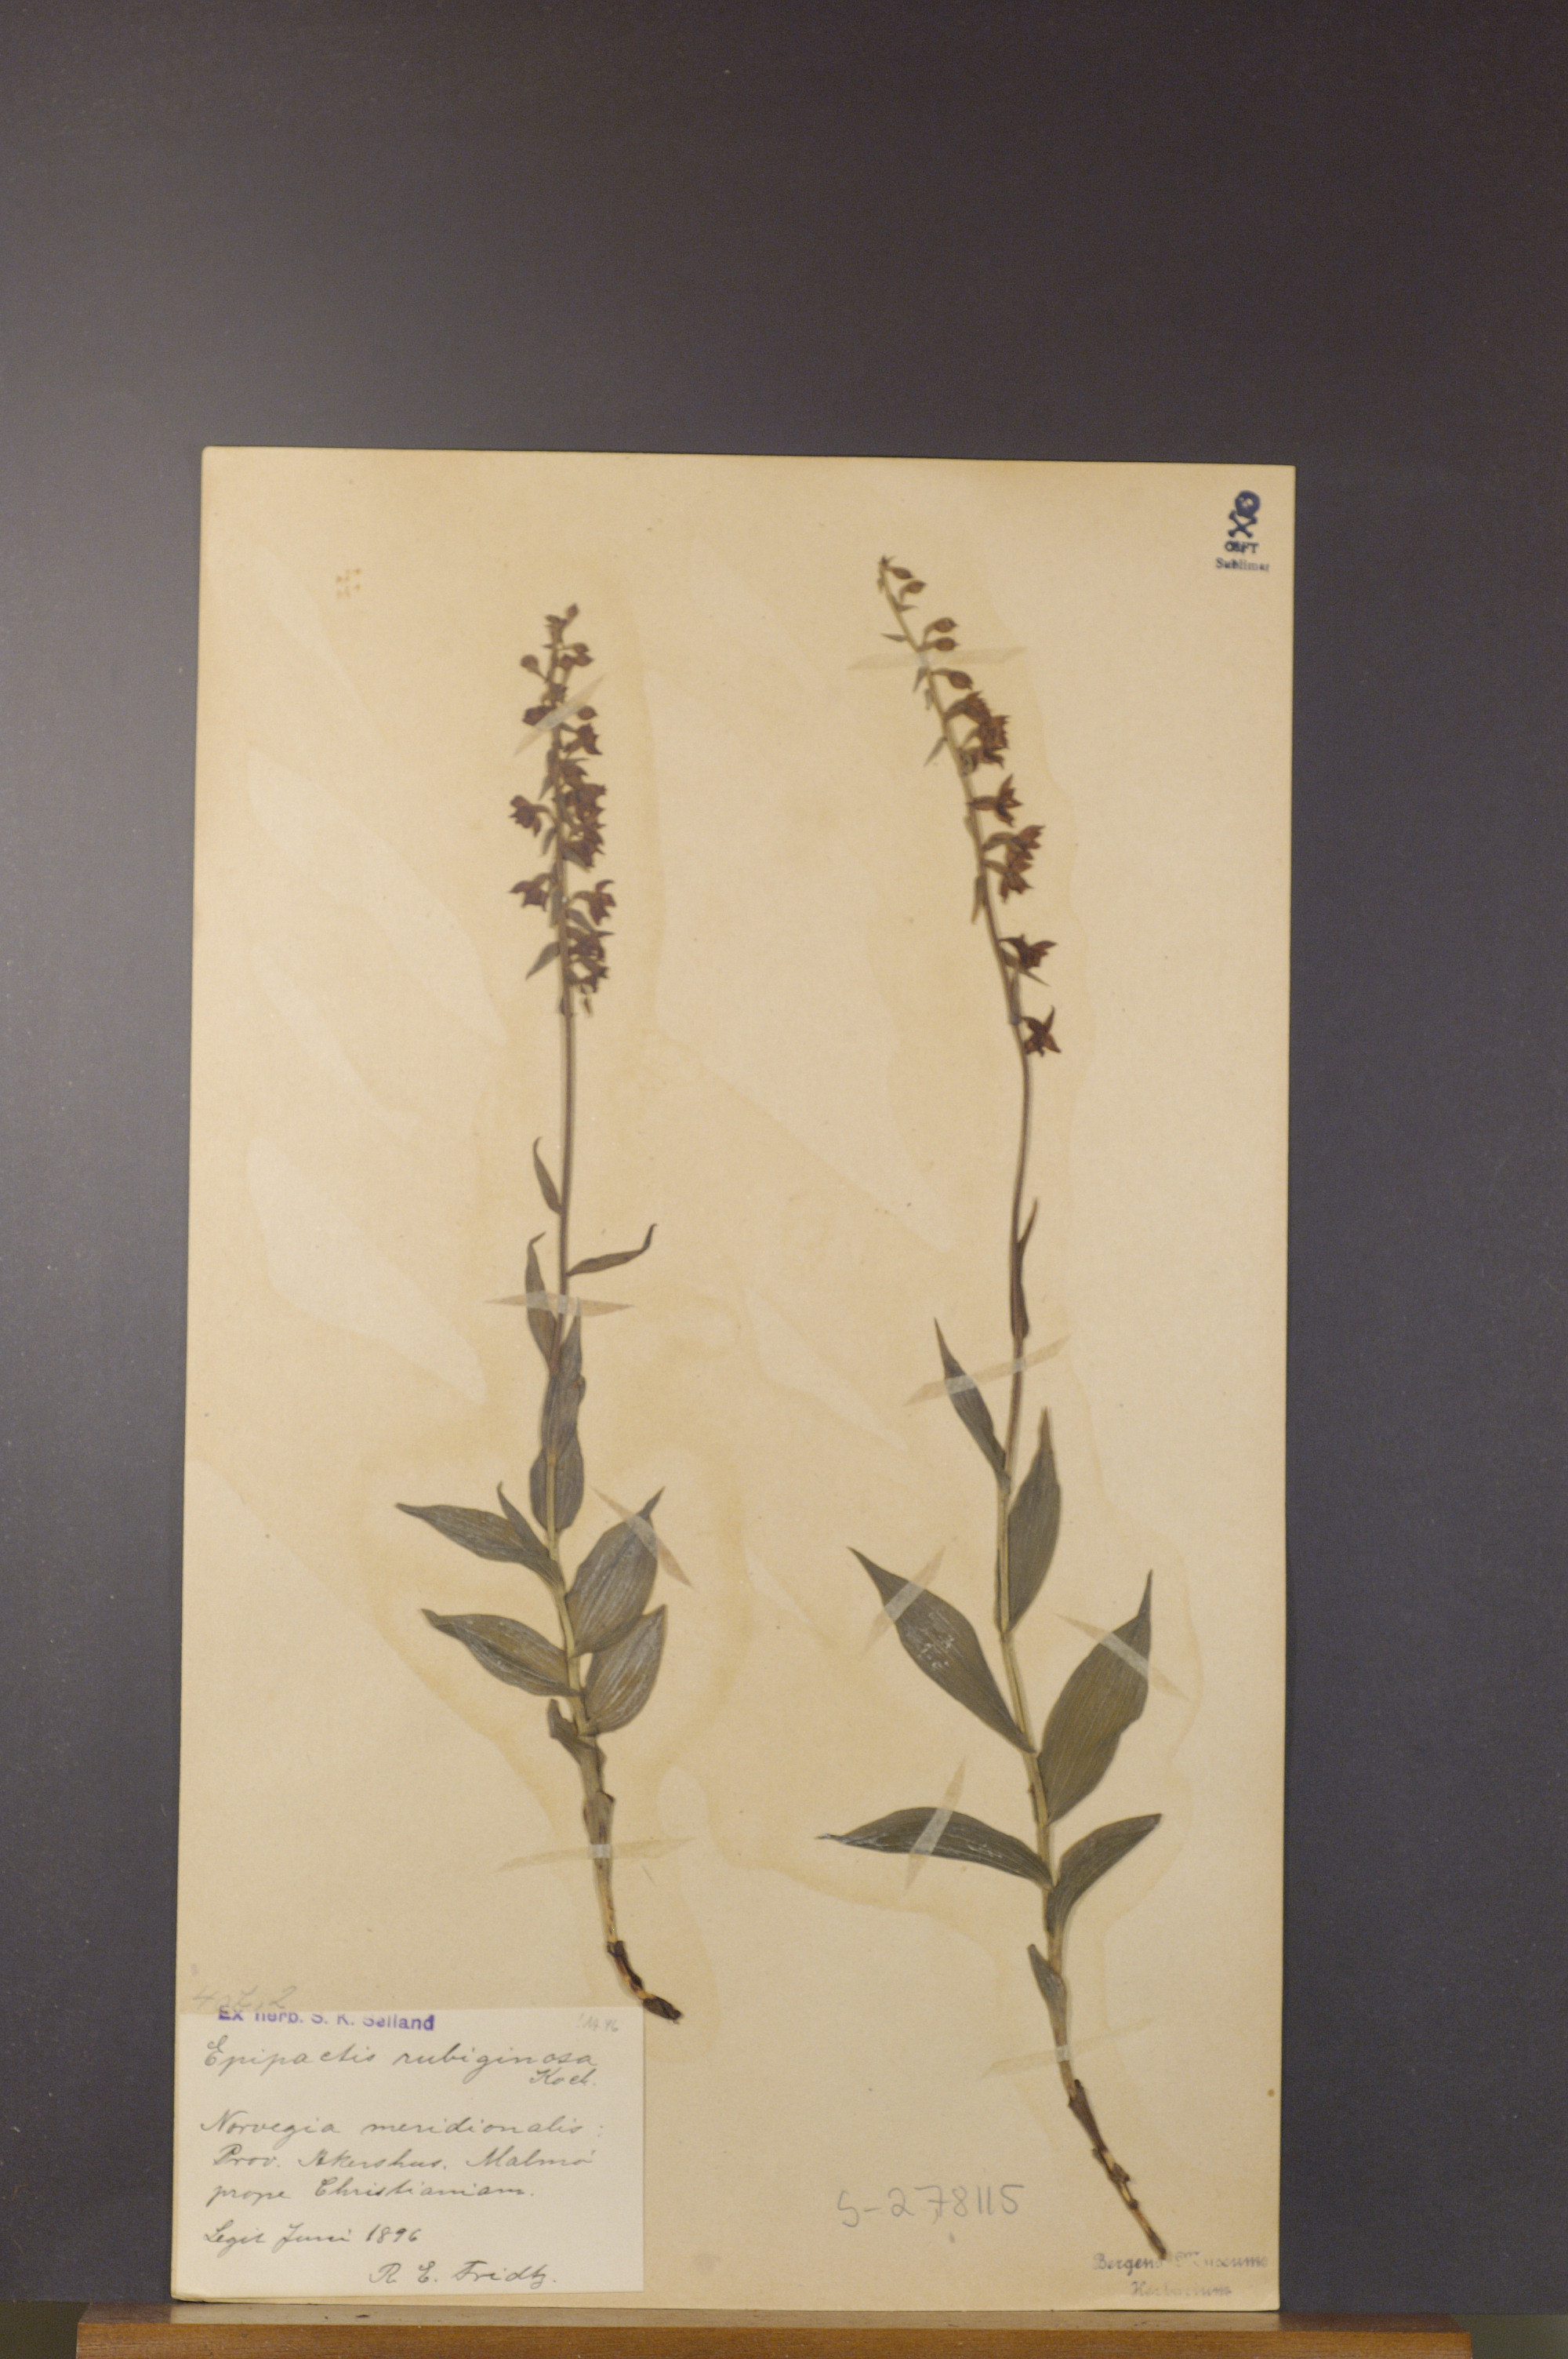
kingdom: Plantae
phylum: Tracheophyta
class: Liliopsida
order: Asparagales
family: Orchidaceae
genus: Epipactis
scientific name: Epipactis atrorubens
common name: Dark-red helleborine
